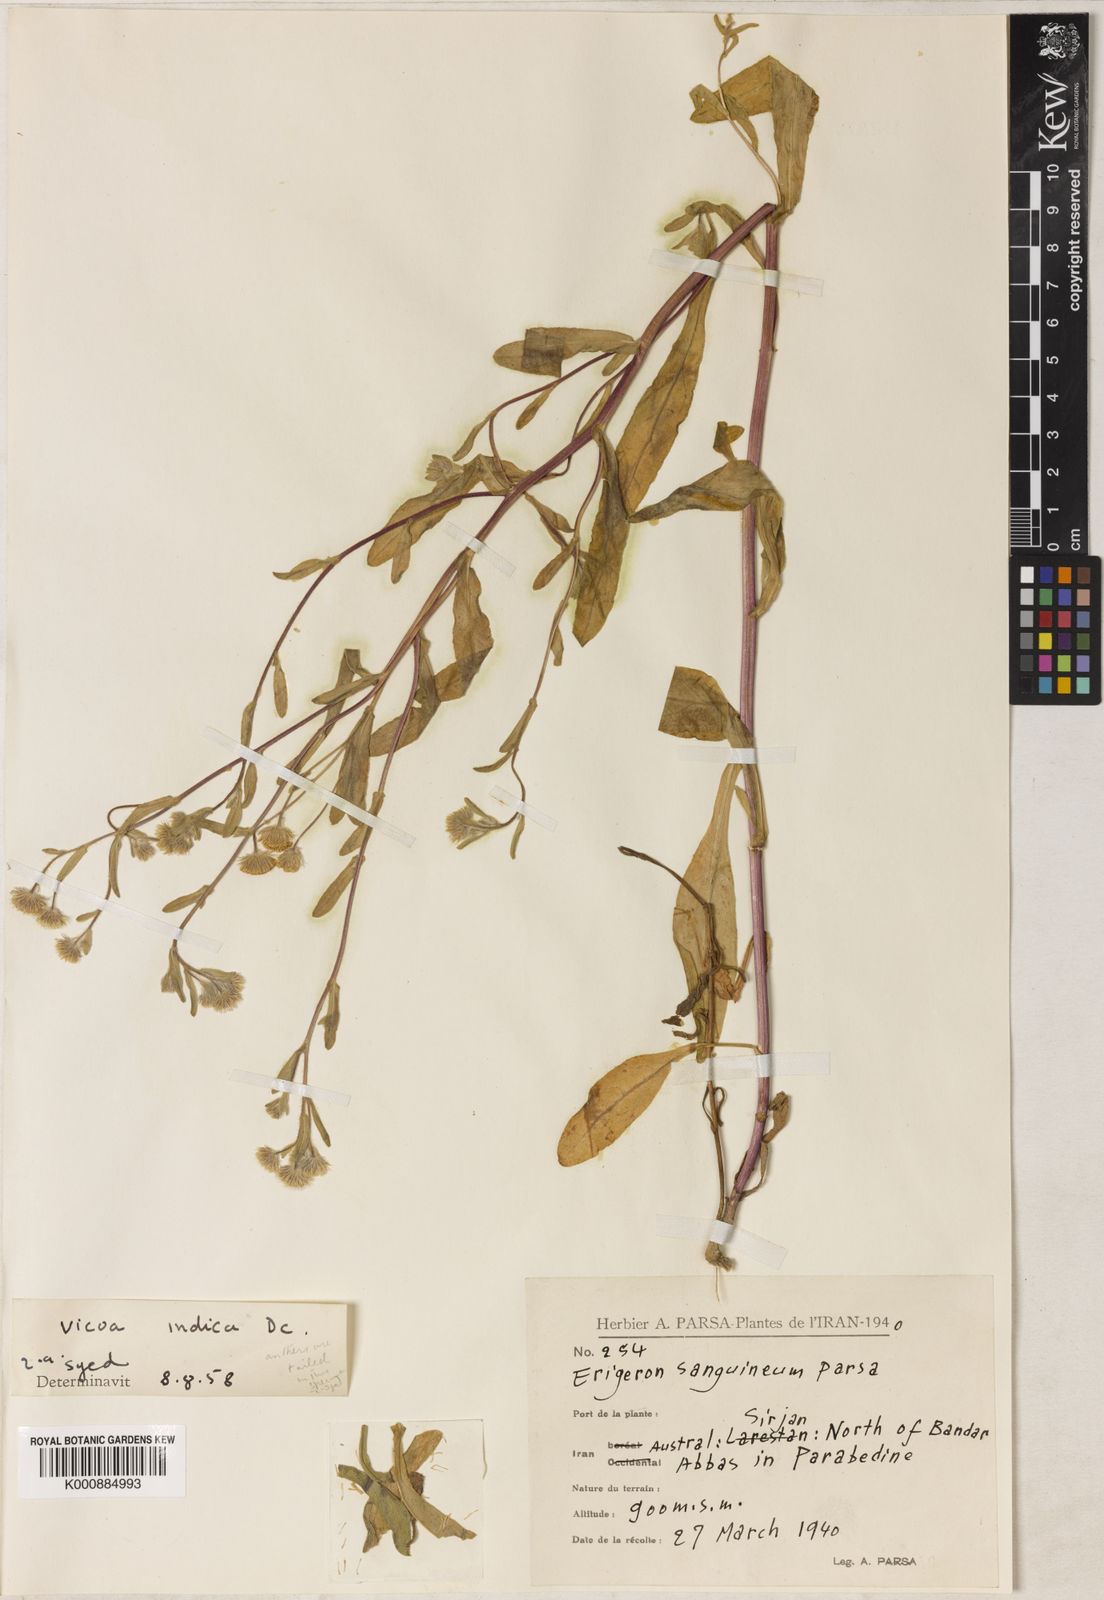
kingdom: Plantae
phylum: Tracheophyta
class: Magnoliopsida
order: Asterales
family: Asteraceae
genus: Vicoa
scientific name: Vicoa indica
